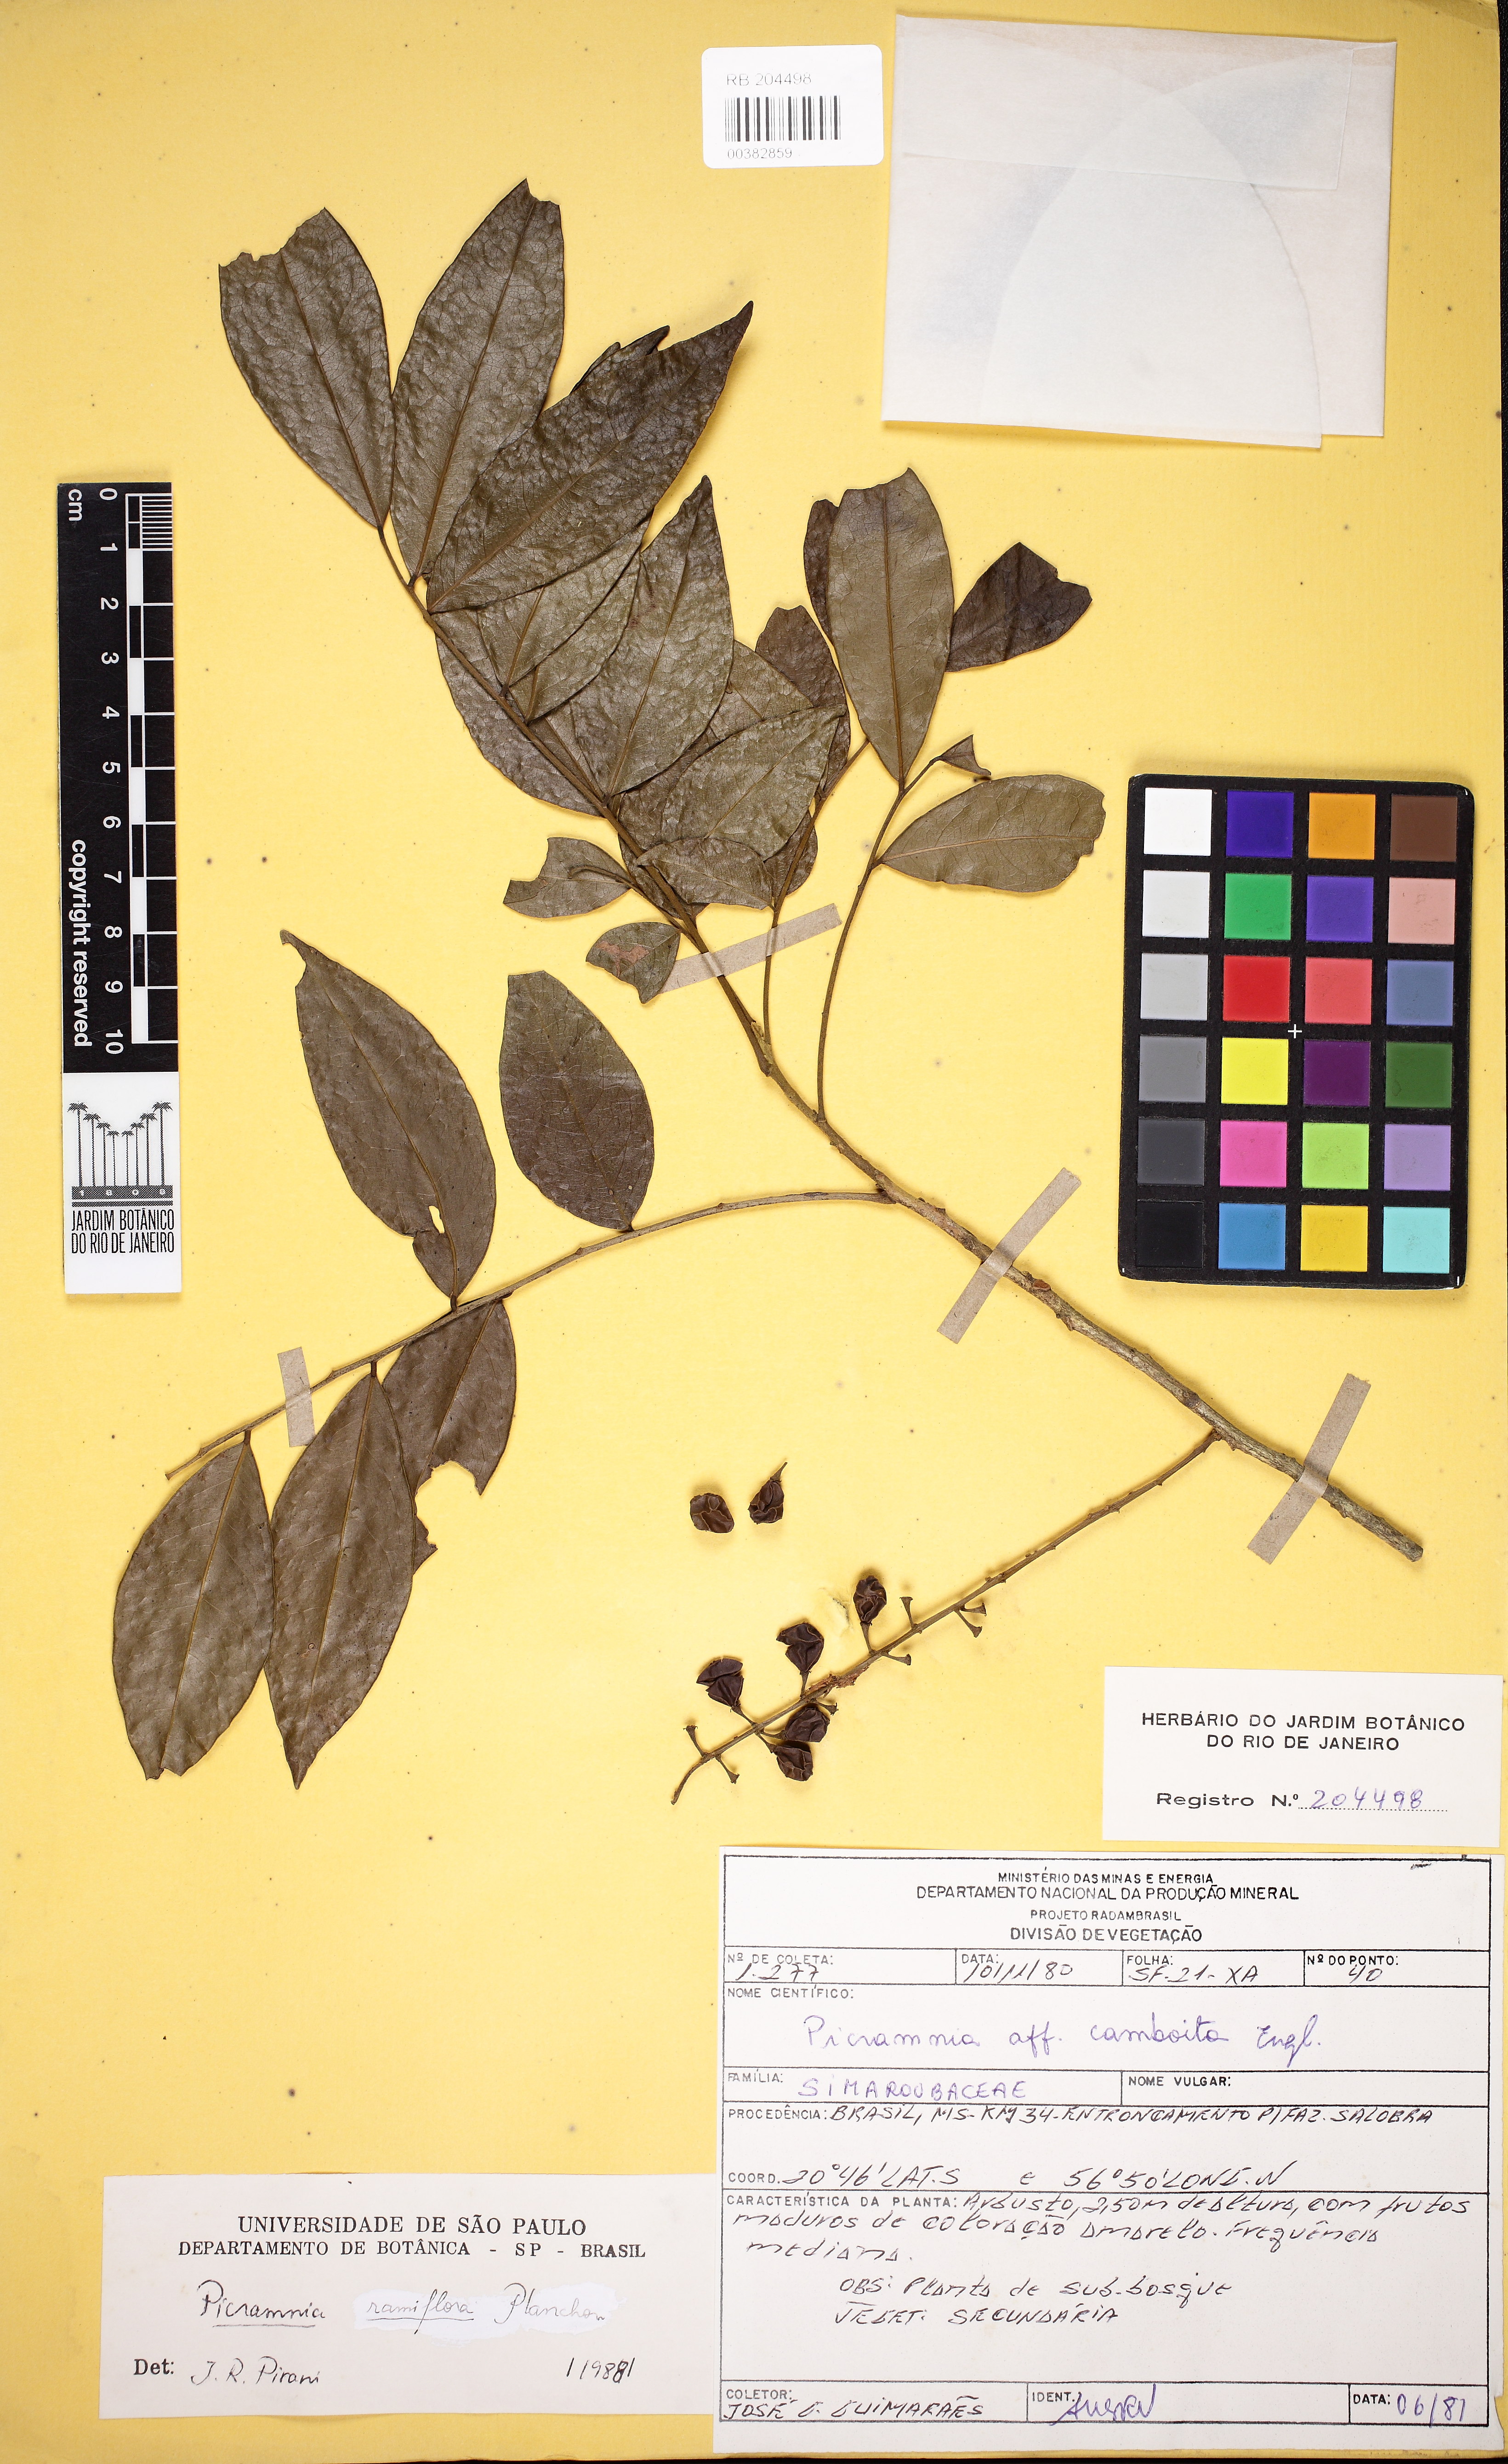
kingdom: Plantae
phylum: Tracheophyta
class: Magnoliopsida
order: Picramniales
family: Picramniaceae
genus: Picramnia
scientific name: Picramnia ramiflora
